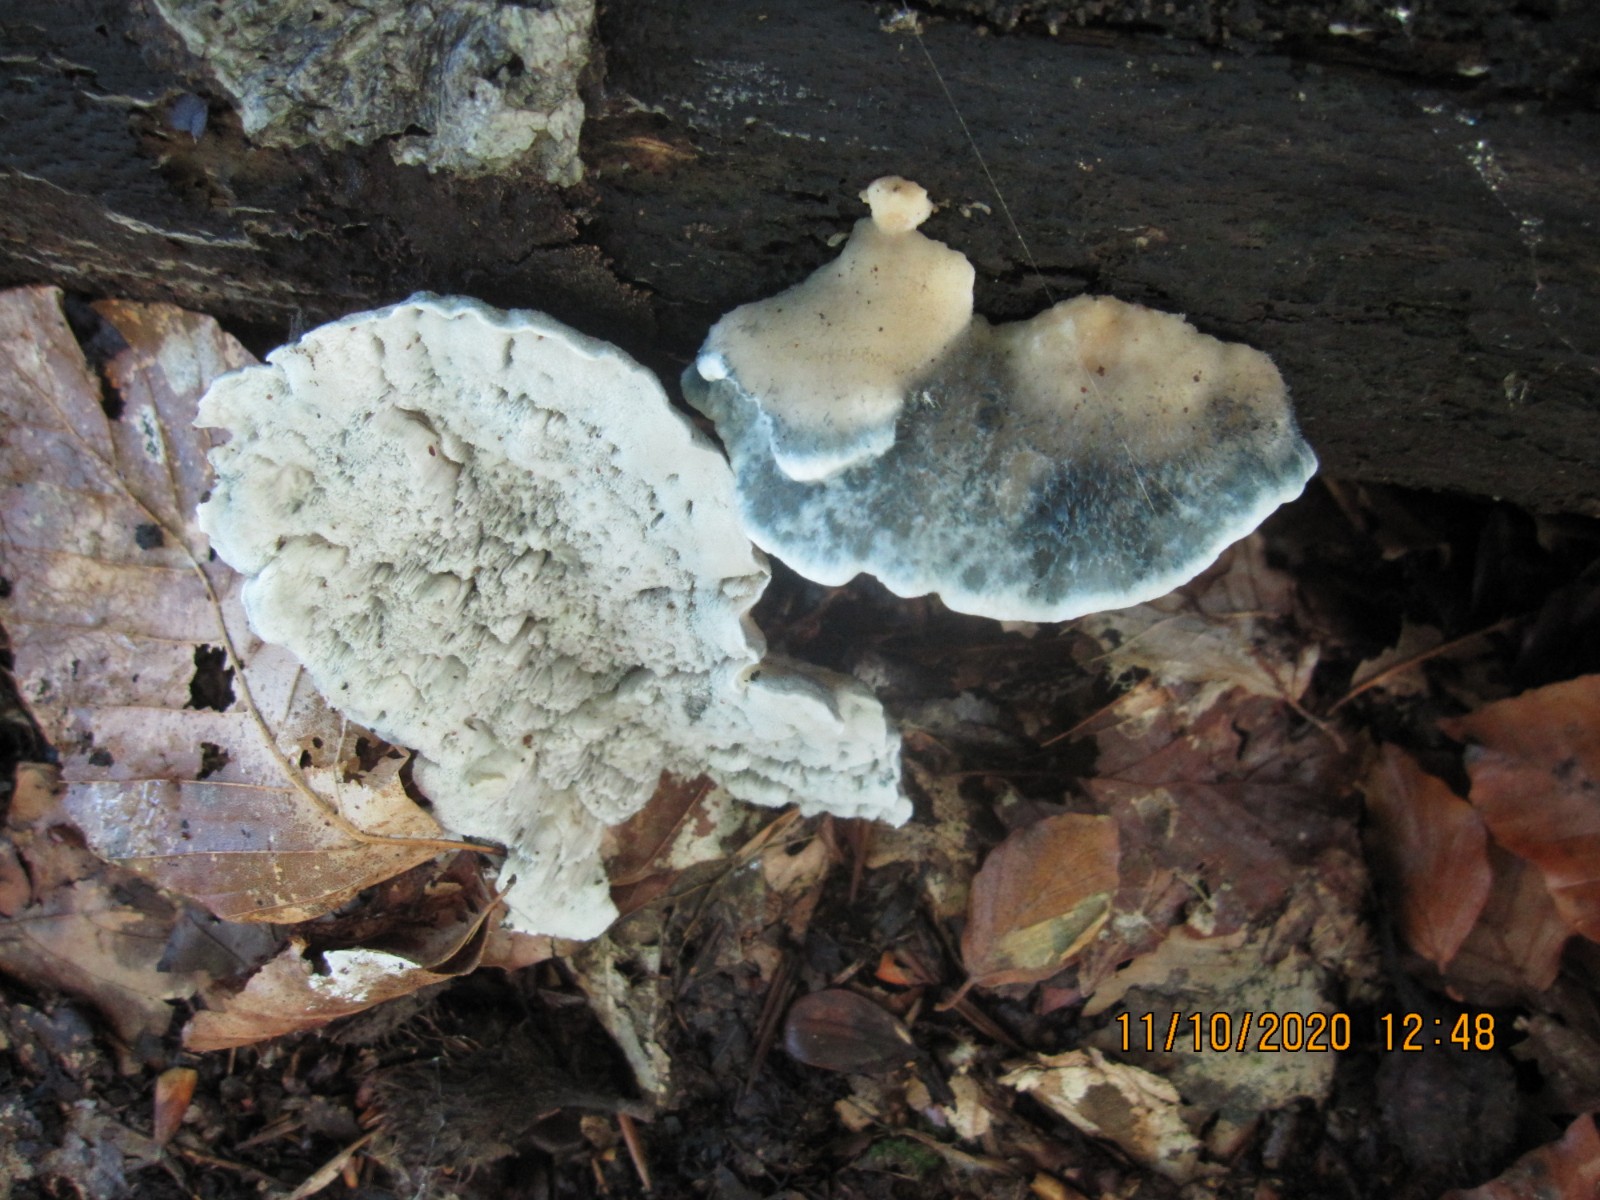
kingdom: Fungi
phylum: Basidiomycota
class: Agaricomycetes
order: Polyporales
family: Polyporaceae
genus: Cyanosporus
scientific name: Cyanosporus alni
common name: blegblå kødporesvamp
